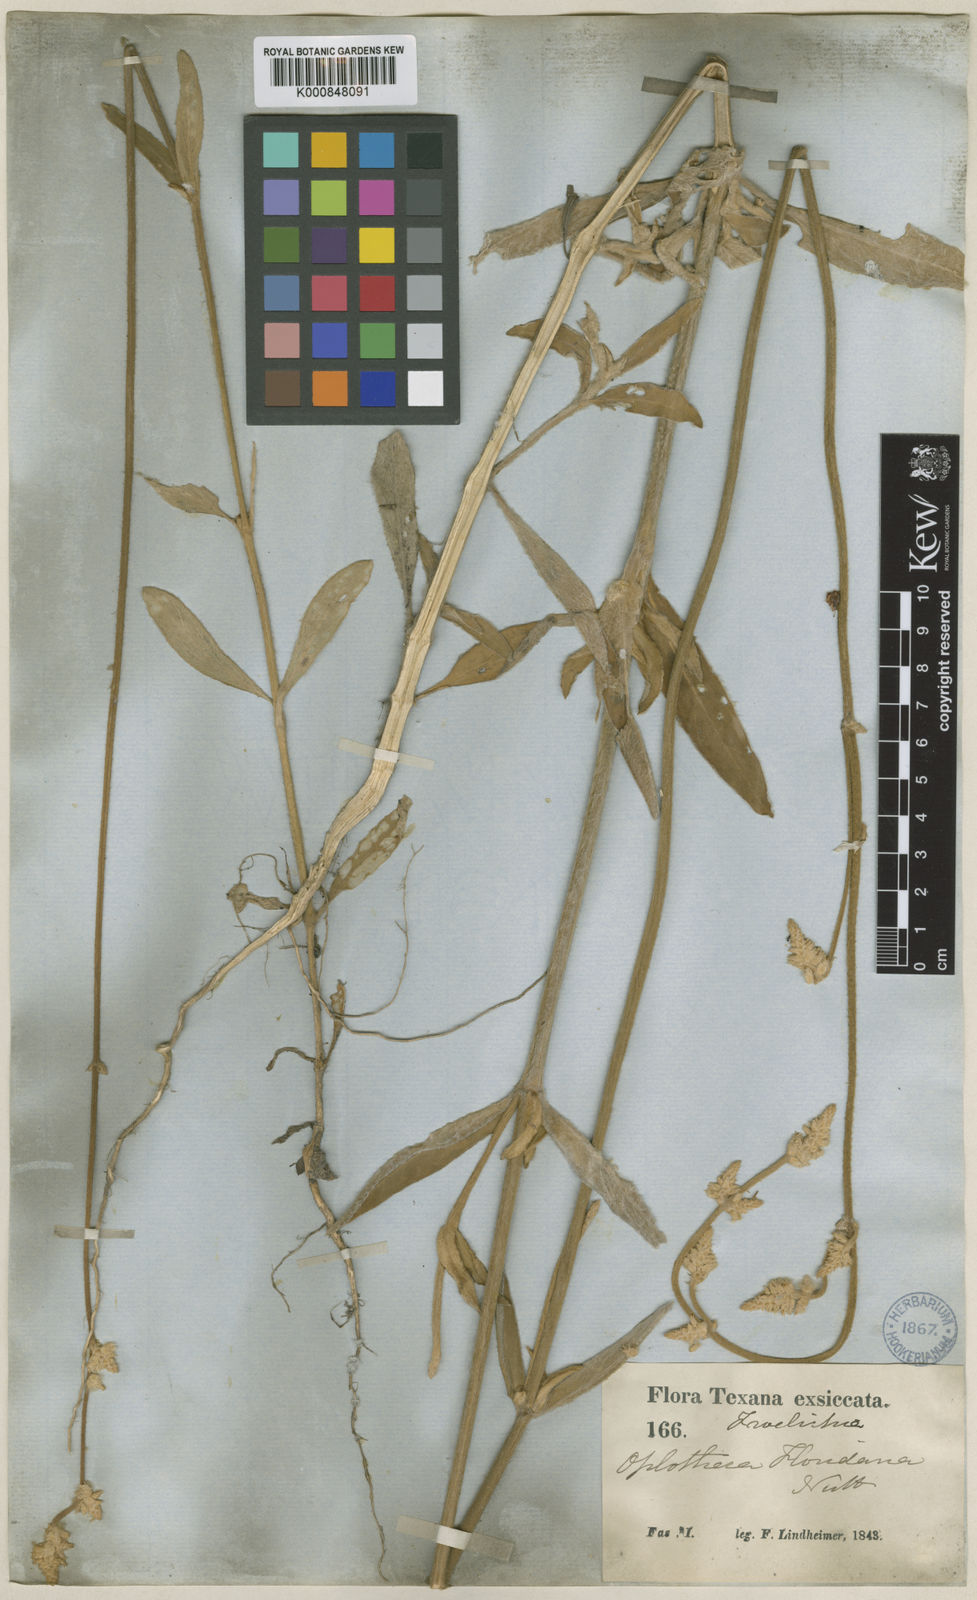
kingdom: Plantae
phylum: Tracheophyta
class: Magnoliopsida
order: Caryophyllales
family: Amaranthaceae
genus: Froelichia
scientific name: Froelichia floridana
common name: Florida snake-cotton
